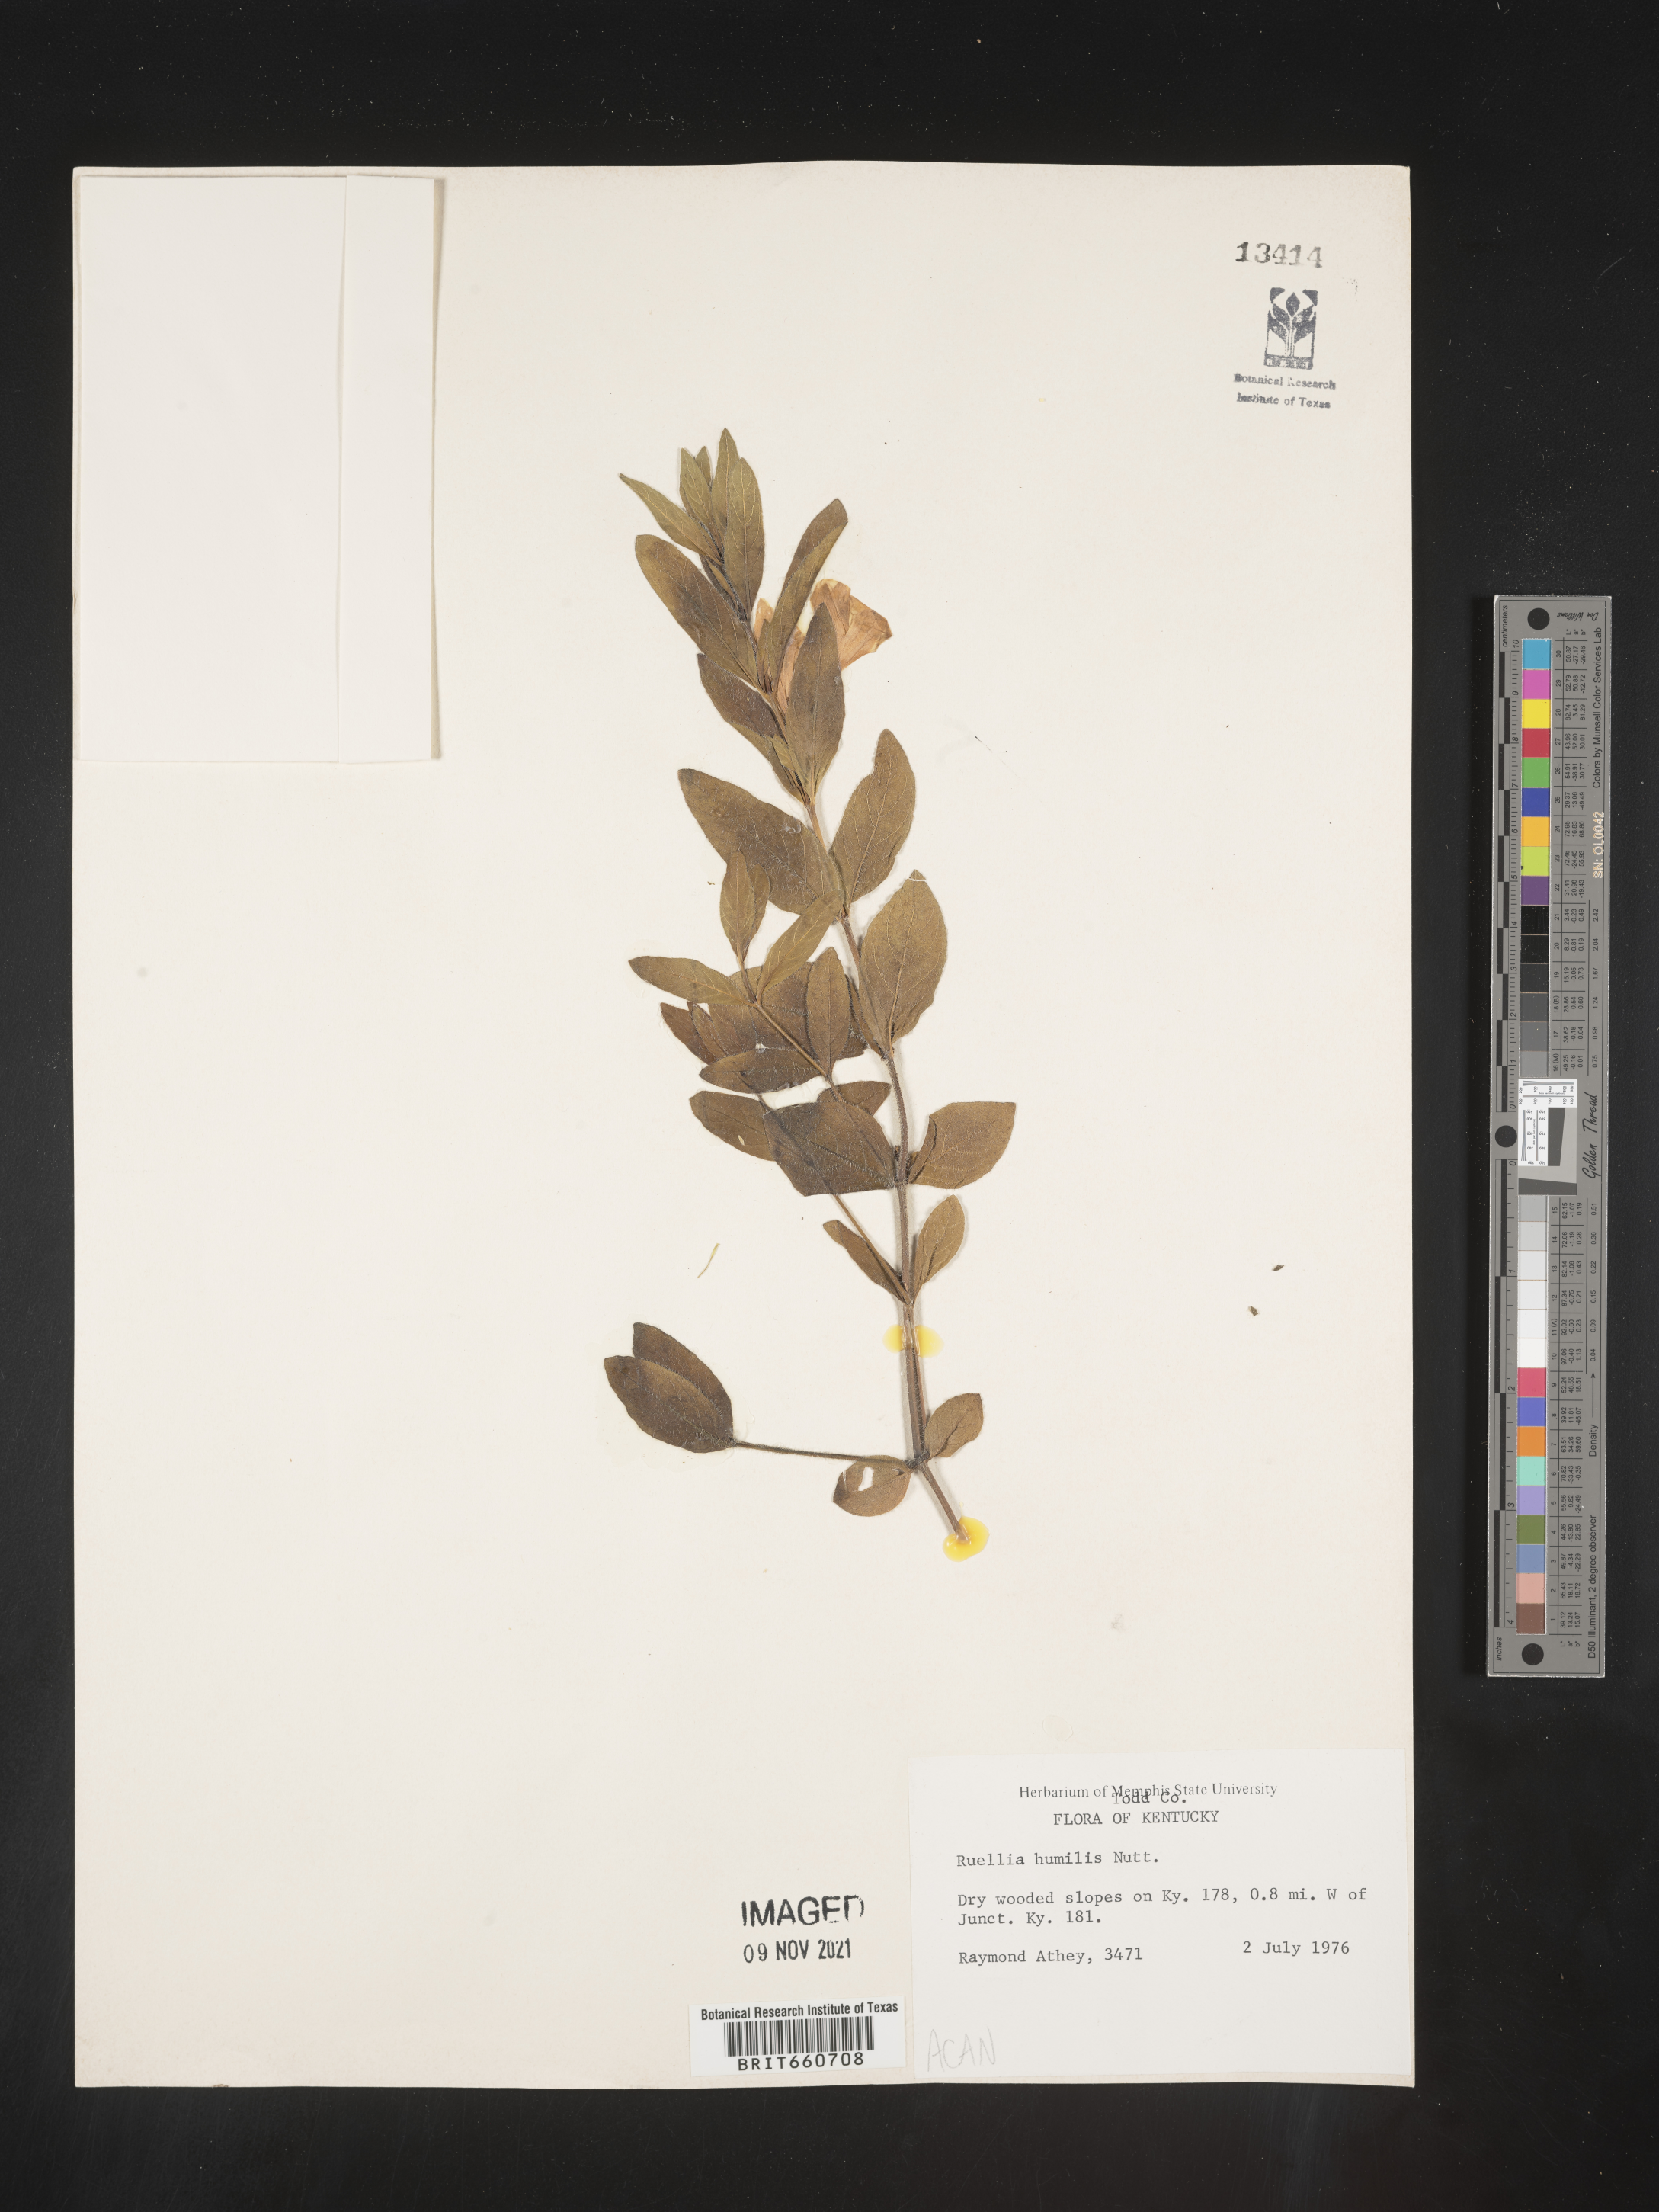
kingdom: Plantae
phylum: Tracheophyta
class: Magnoliopsida
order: Lamiales
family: Acanthaceae
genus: Ruellia
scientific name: Ruellia humilis
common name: Fringe-leaf ruellia
